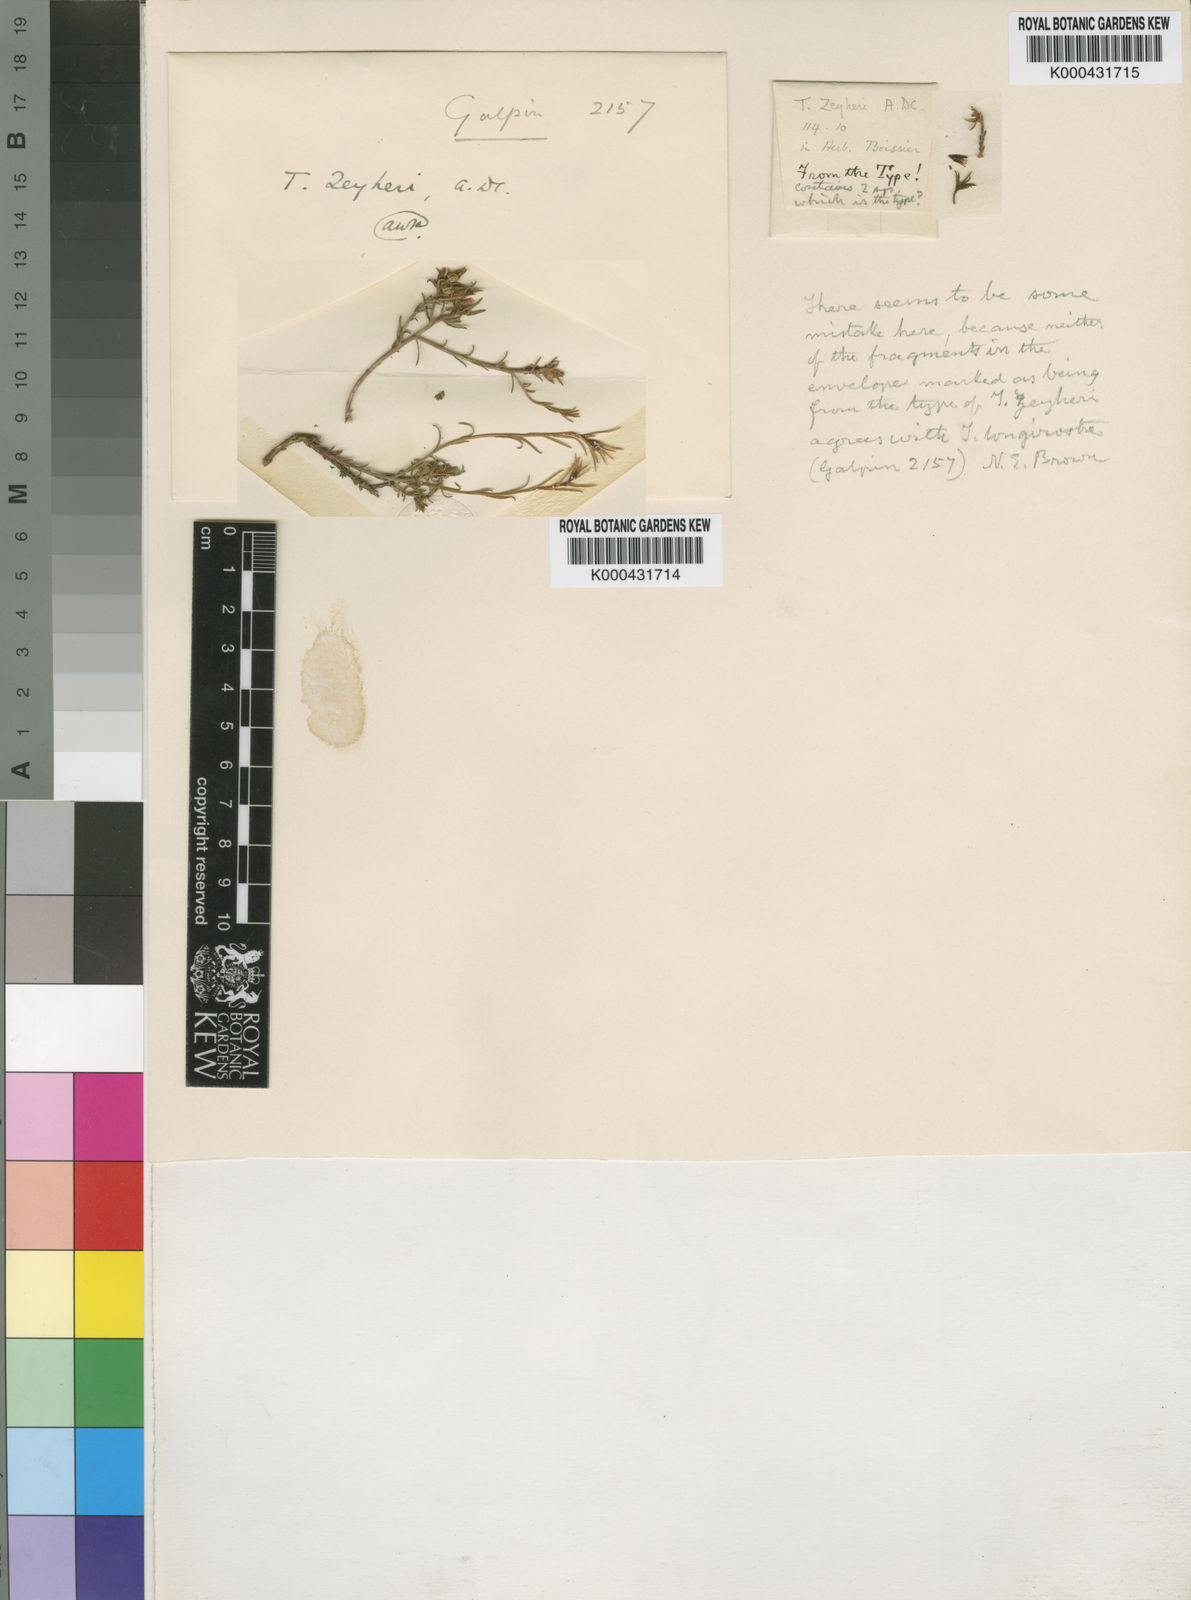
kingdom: Plantae
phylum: Tracheophyta
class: Magnoliopsida
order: Santalales
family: Thesiaceae
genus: Thesium
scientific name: Thesium zeyheri
